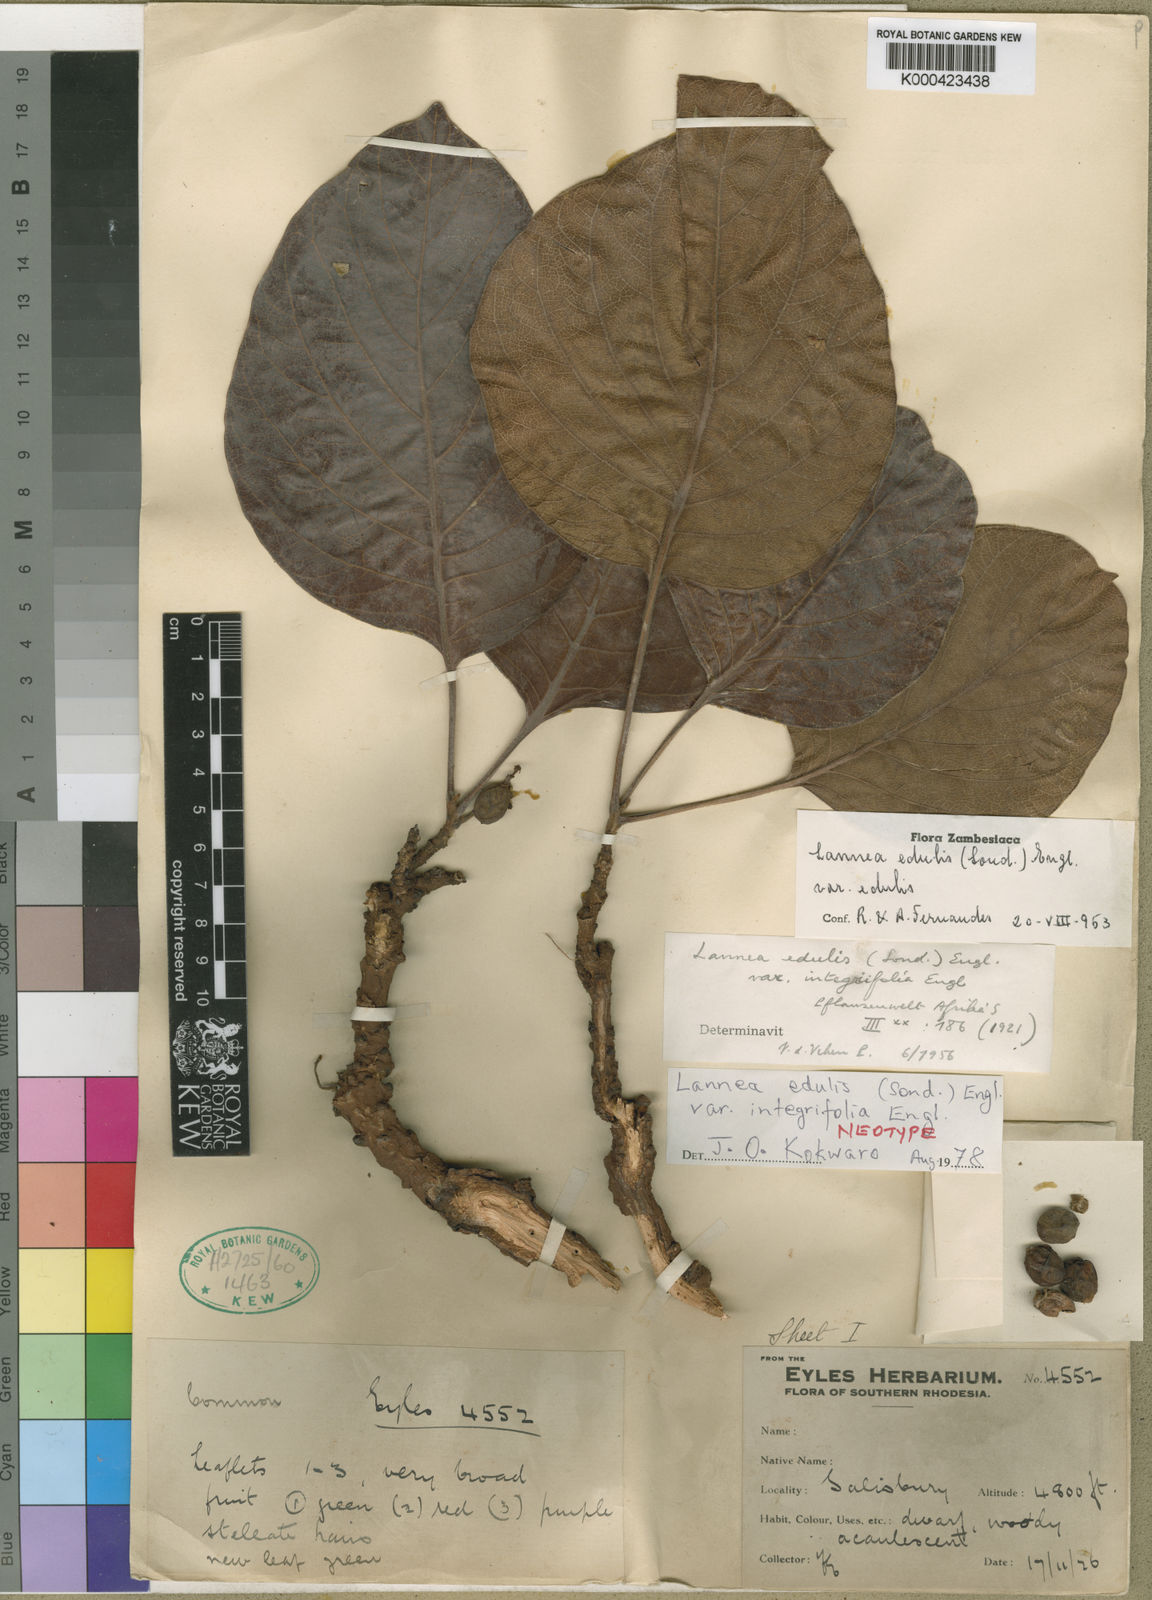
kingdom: Plantae
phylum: Tracheophyta
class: Magnoliopsida
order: Sapindales
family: Anacardiaceae
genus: Lannea
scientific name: Lannea edulis
